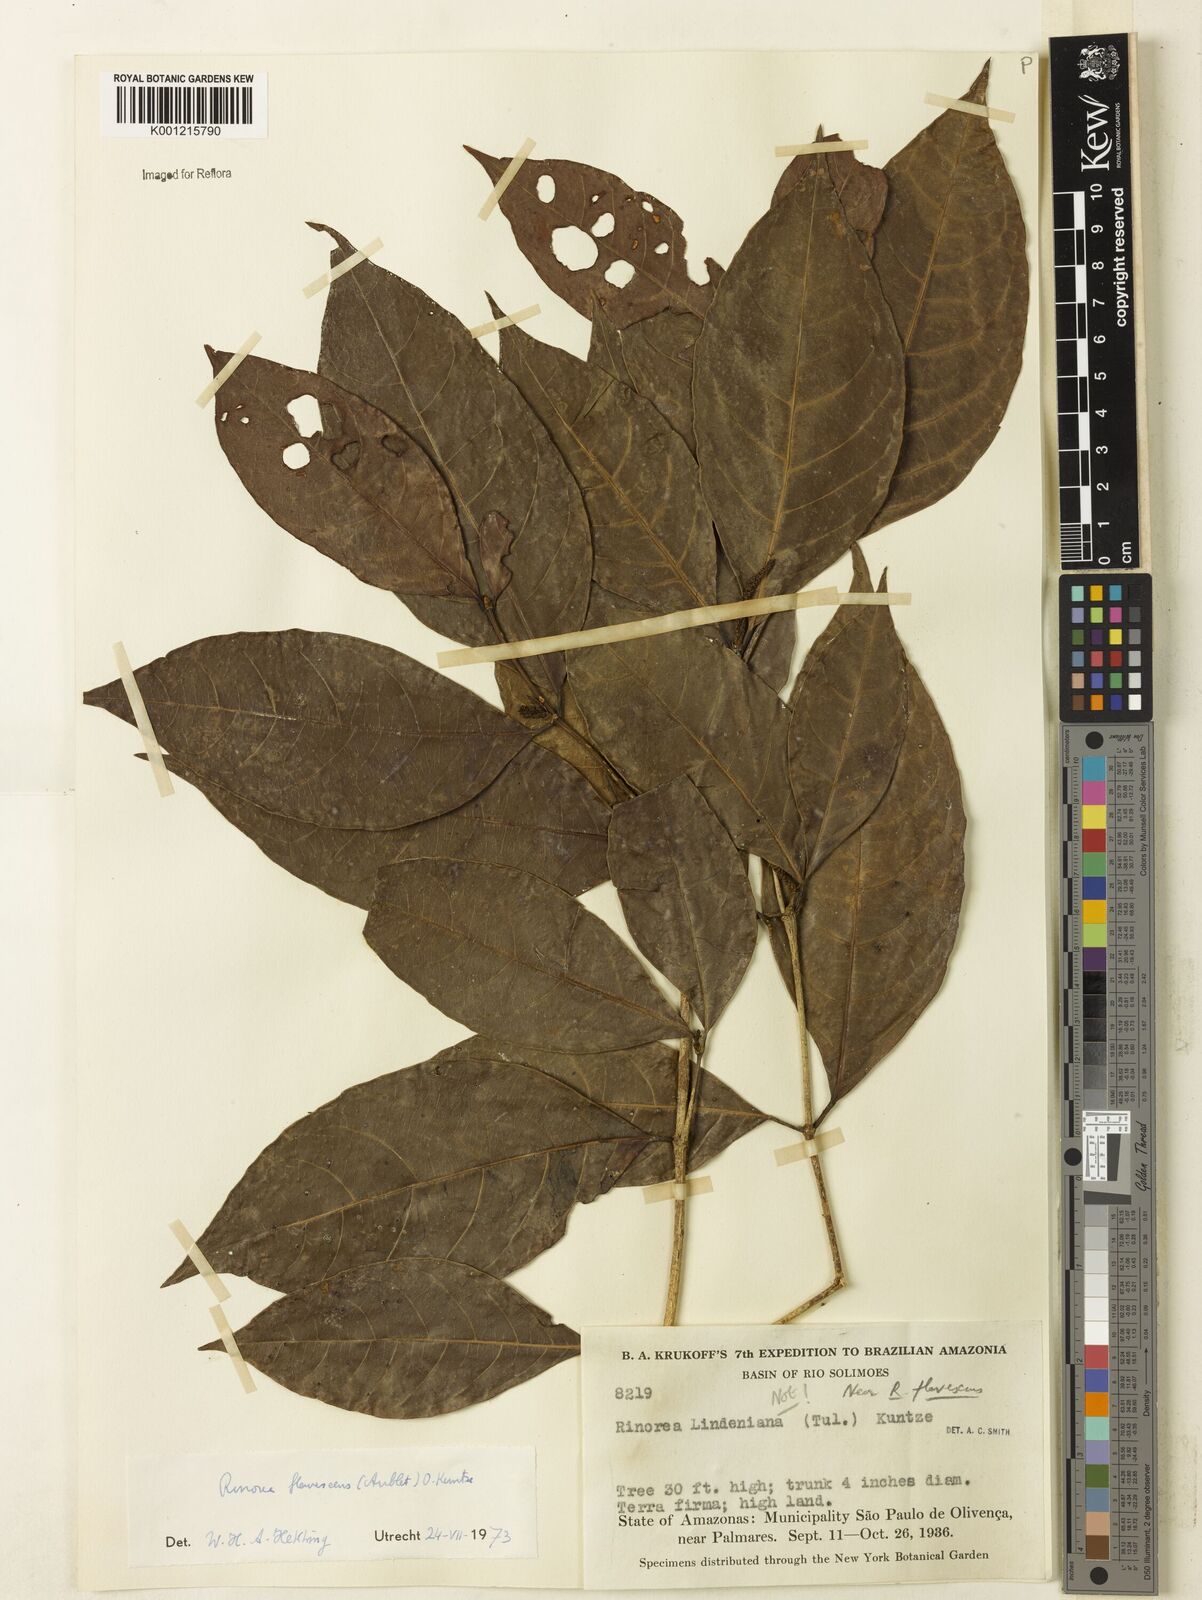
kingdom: Plantae
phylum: Tracheophyta
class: Magnoliopsida
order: Malpighiales
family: Violaceae
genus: Rinorea
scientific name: Rinorea flavescens
